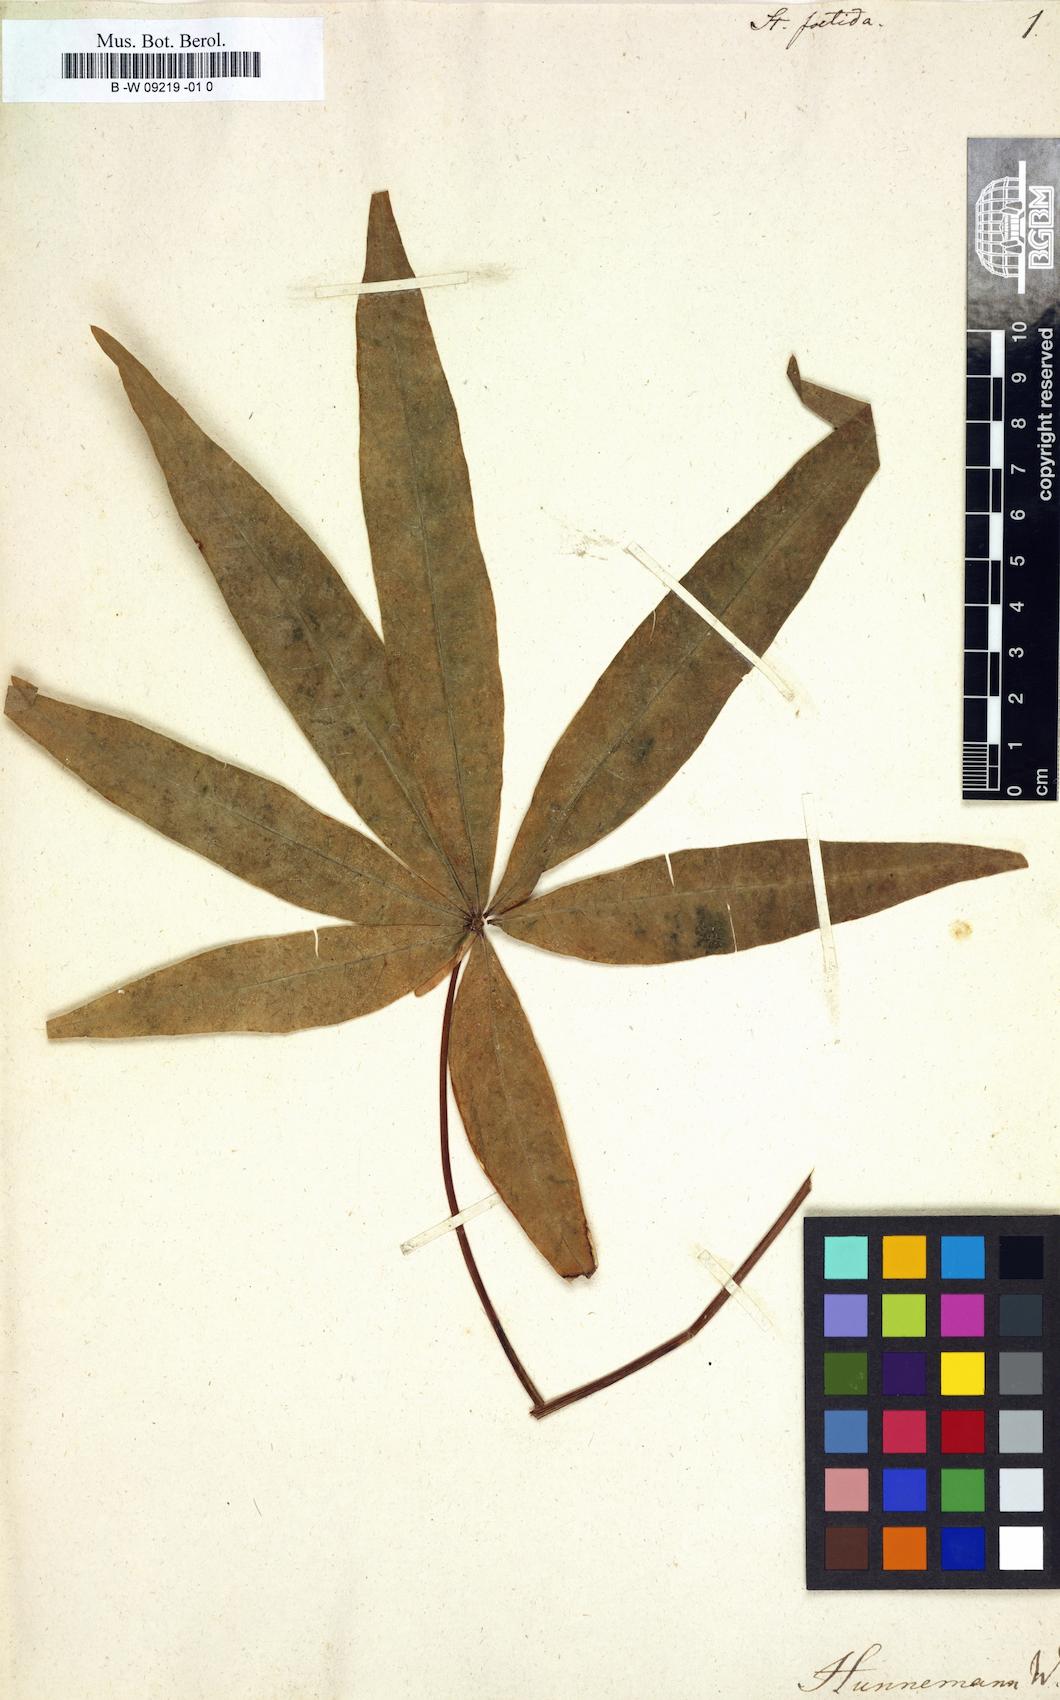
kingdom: Plantae
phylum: Tracheophyta
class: Magnoliopsida
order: Malvales
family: Malvaceae
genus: Sterculia
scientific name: Sterculia foetida
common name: Hazel sterculia
